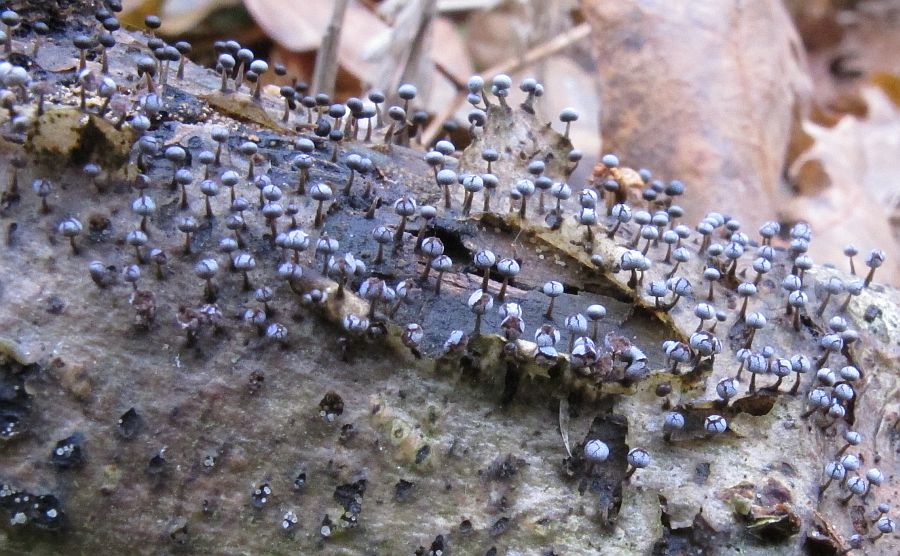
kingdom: Protozoa
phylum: Mycetozoa
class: Myxomycetes
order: Physarales
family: Physaraceae
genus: Physarum
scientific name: Physarum album
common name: nikkende støvknop
